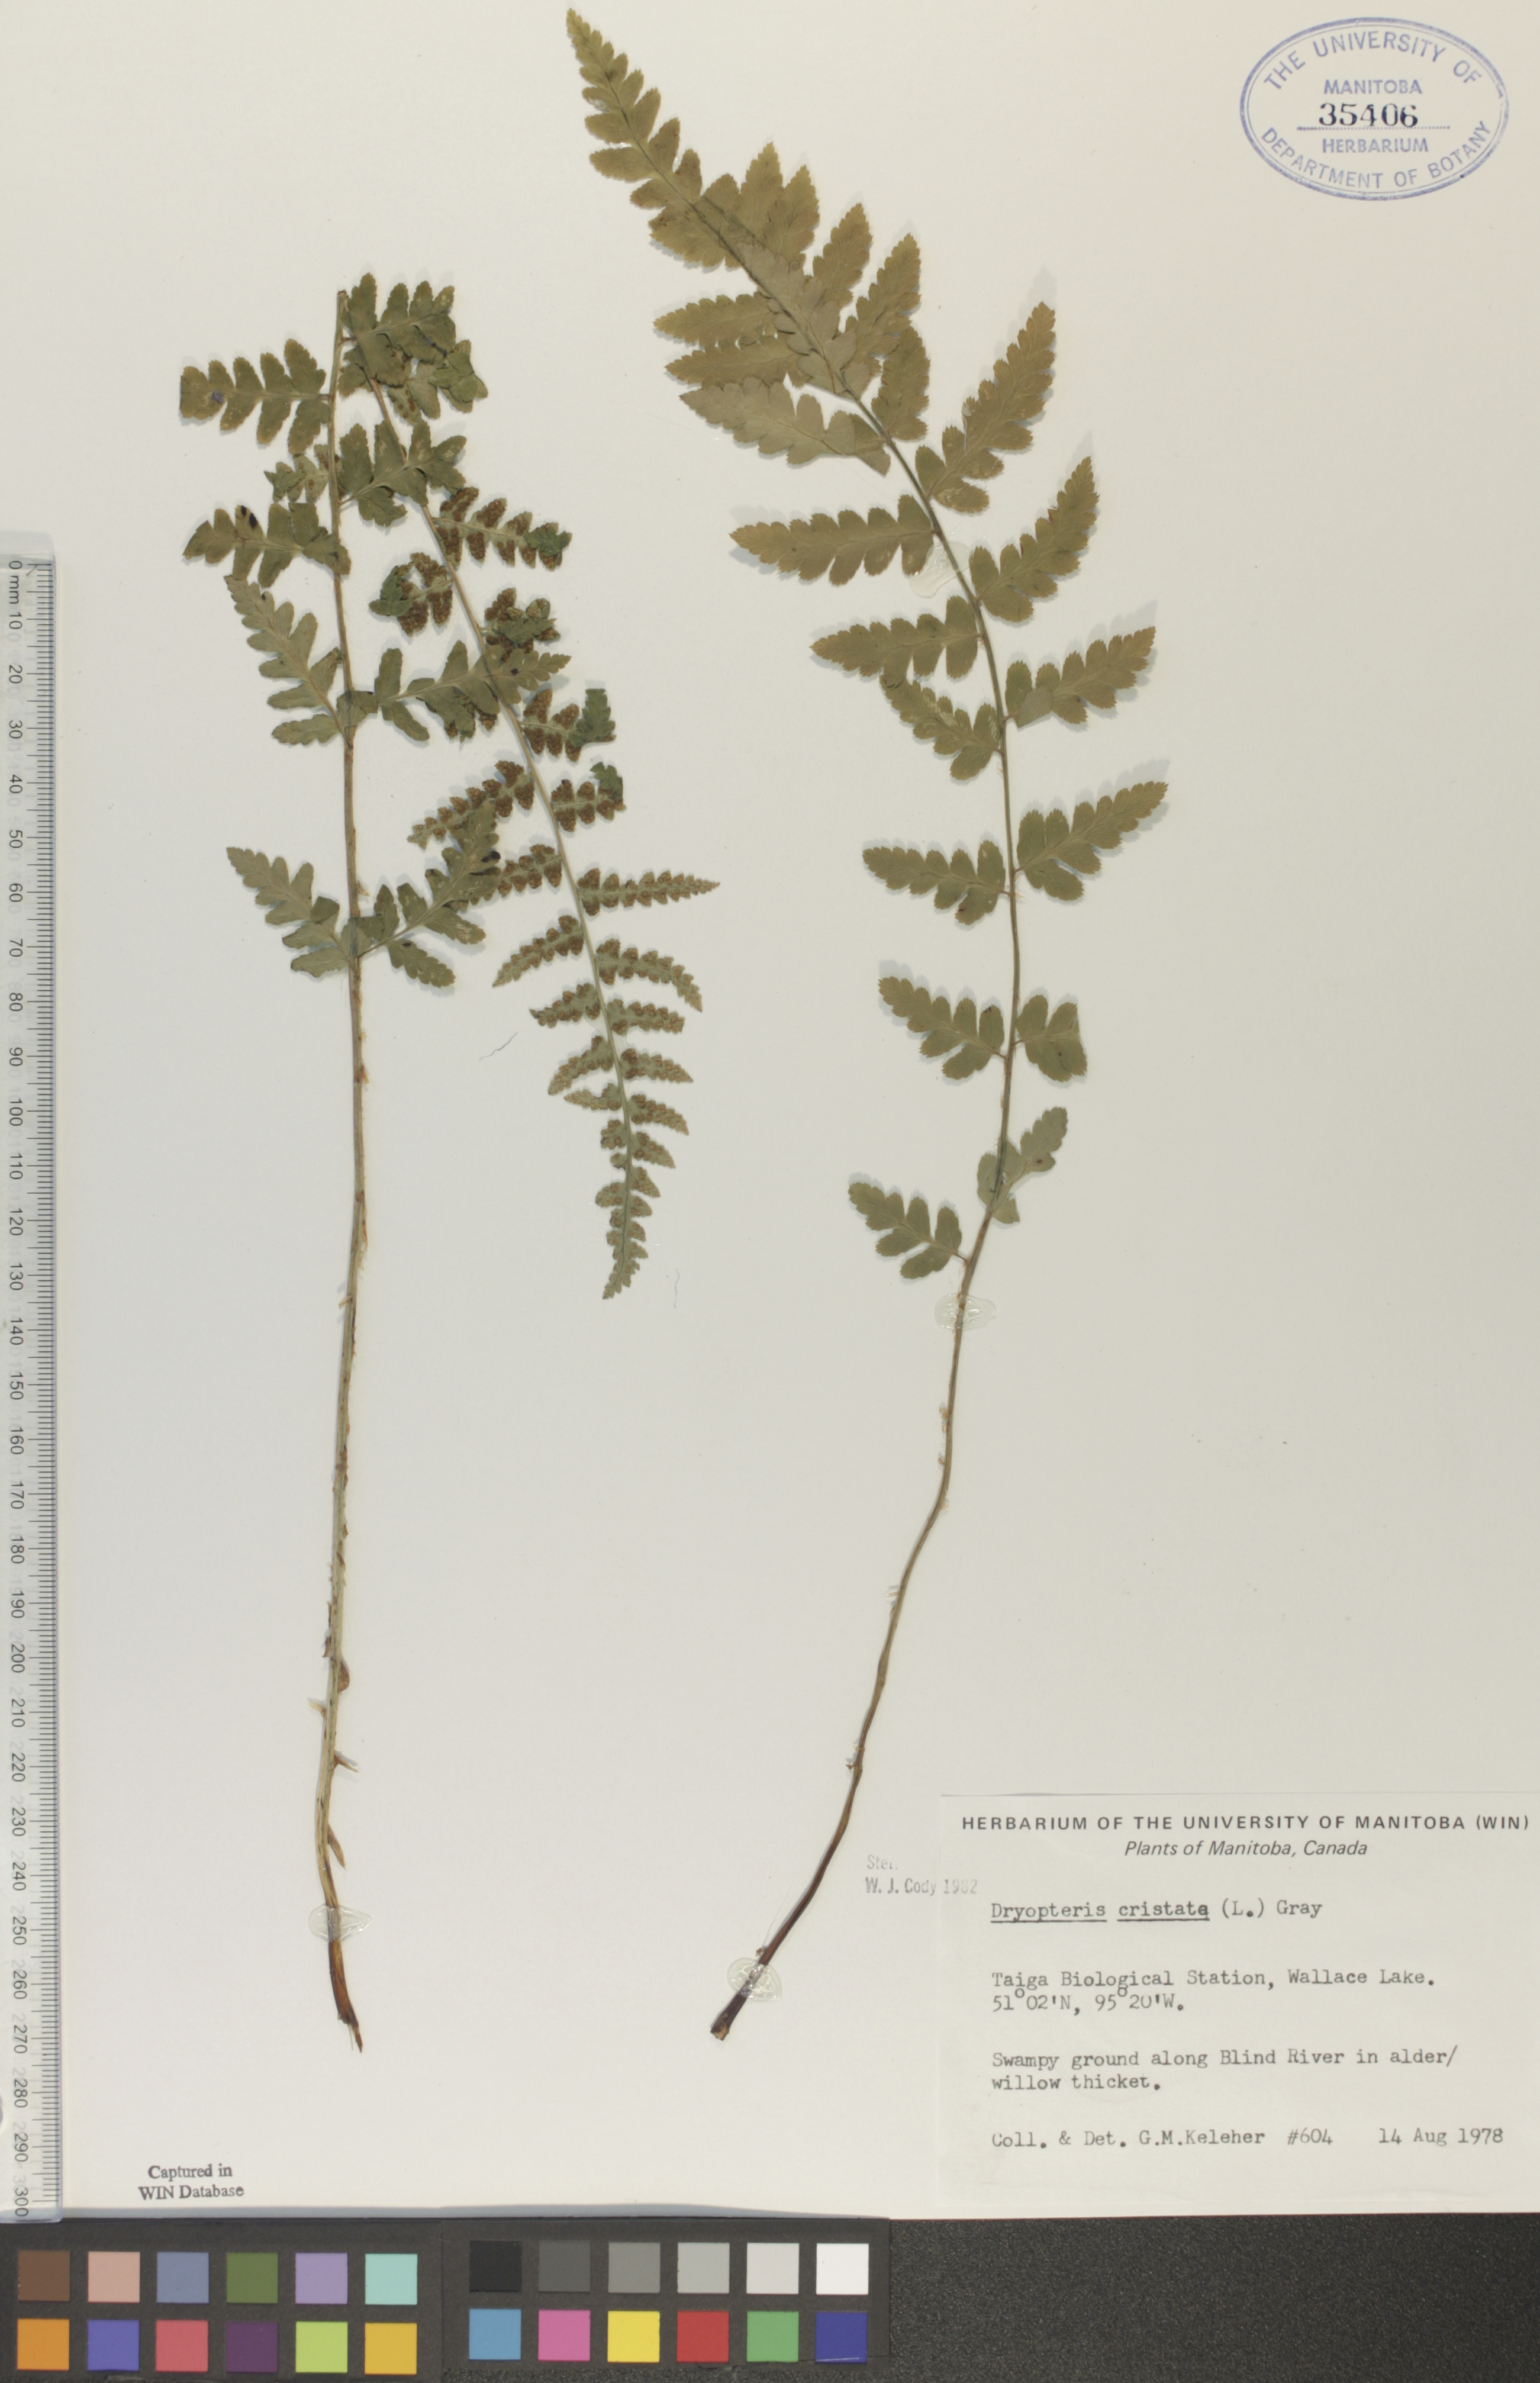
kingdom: Plantae
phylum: Tracheophyta
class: Polypodiopsida
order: Polypodiales
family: Dryopteridaceae
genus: Dryopteris
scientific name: Dryopteris cristata
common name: Crested wood fern
